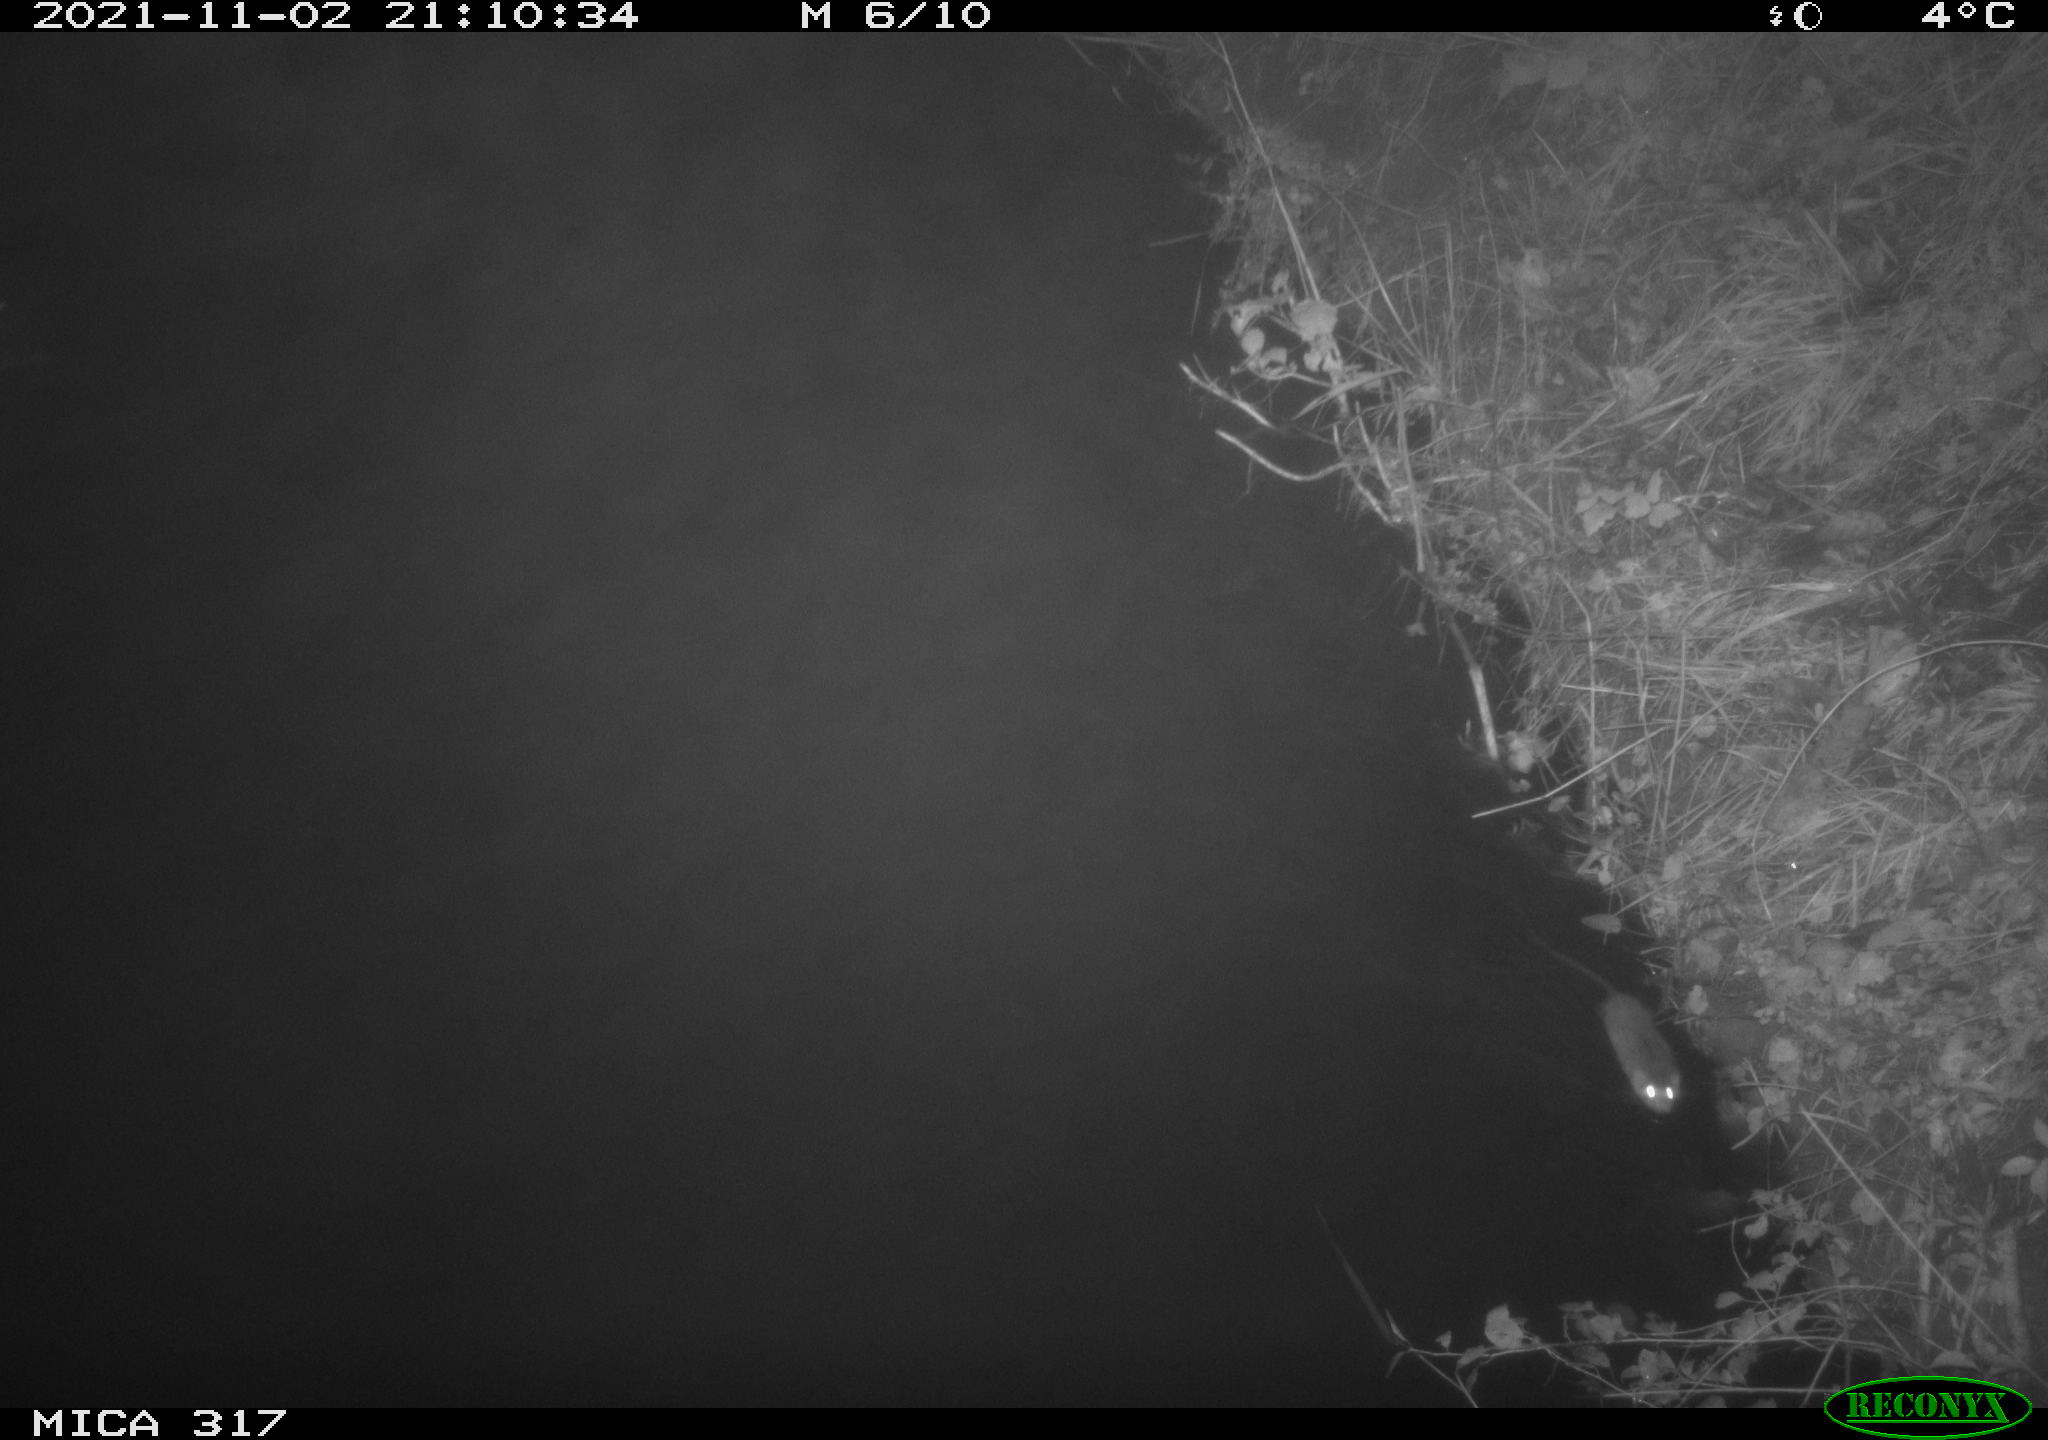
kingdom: Animalia
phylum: Chordata
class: Mammalia
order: Rodentia
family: Muridae
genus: Rattus
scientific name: Rattus norvegicus
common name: Brown rat
